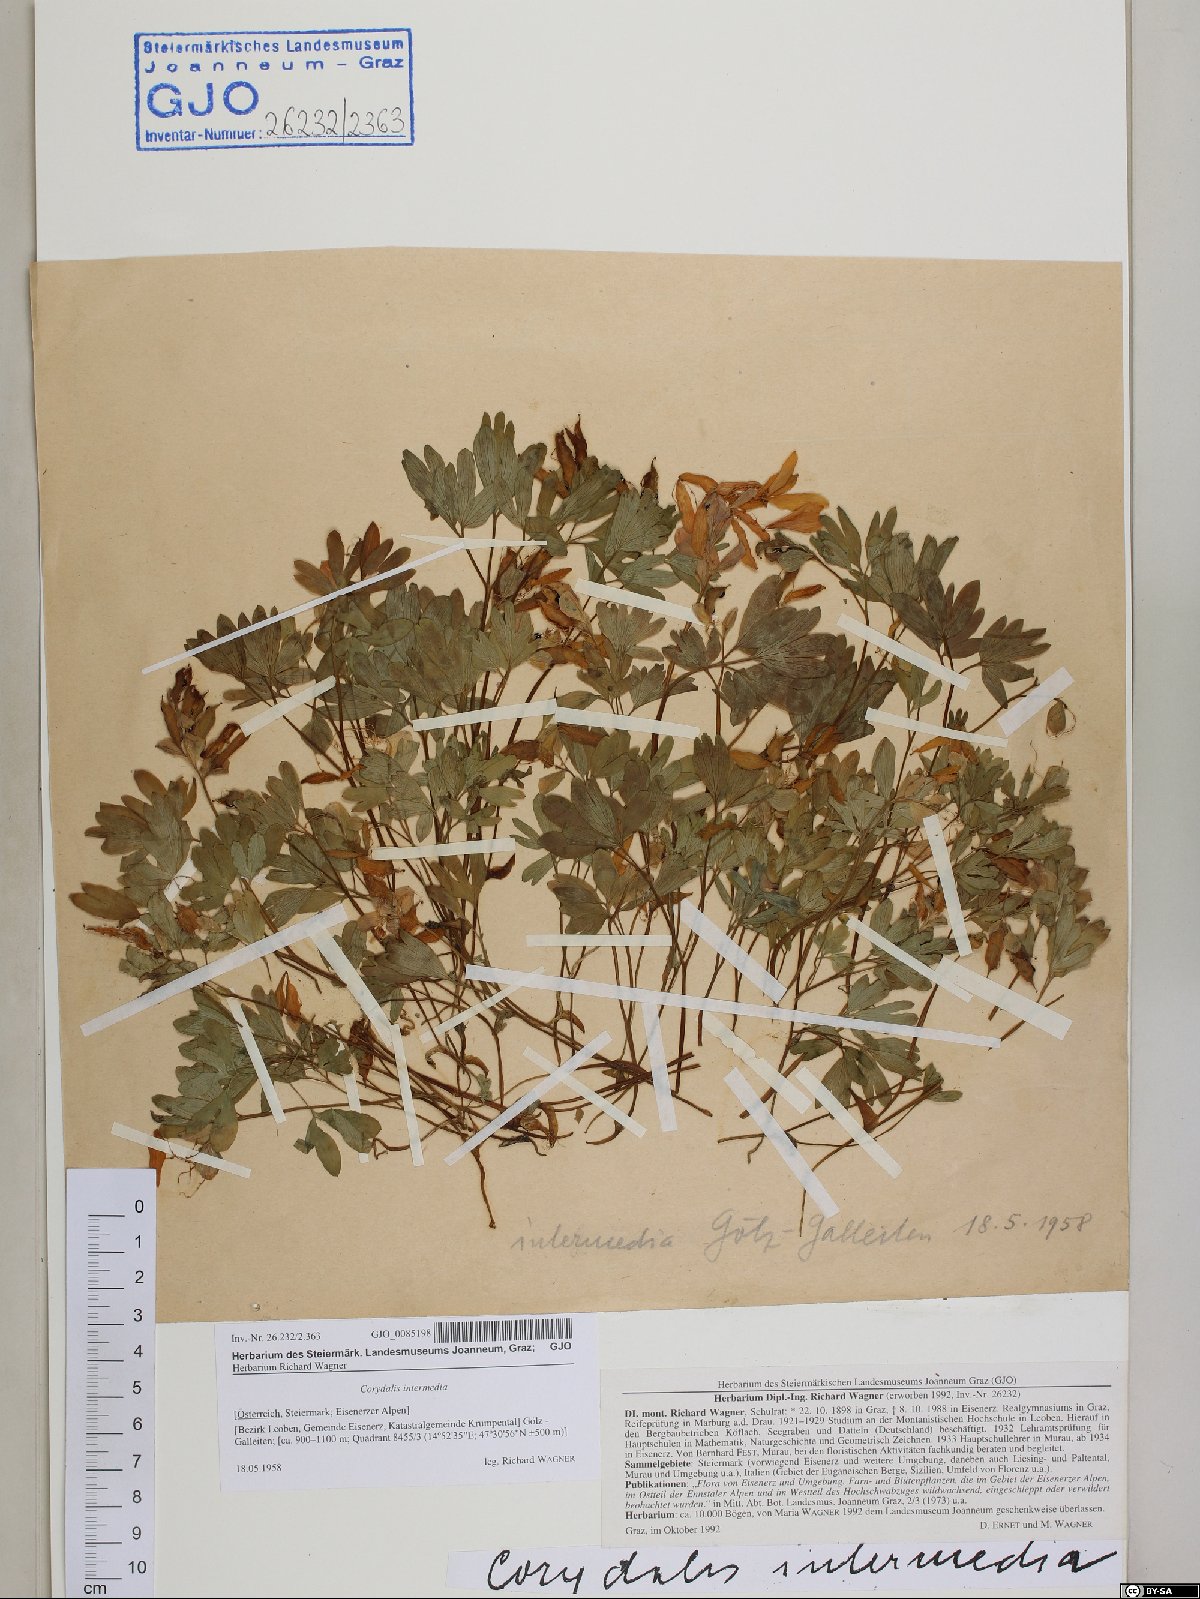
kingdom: Plantae
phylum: Tracheophyta
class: Magnoliopsida
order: Ranunculales
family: Papaveraceae
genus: Corydalis
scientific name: Corydalis intermedia
